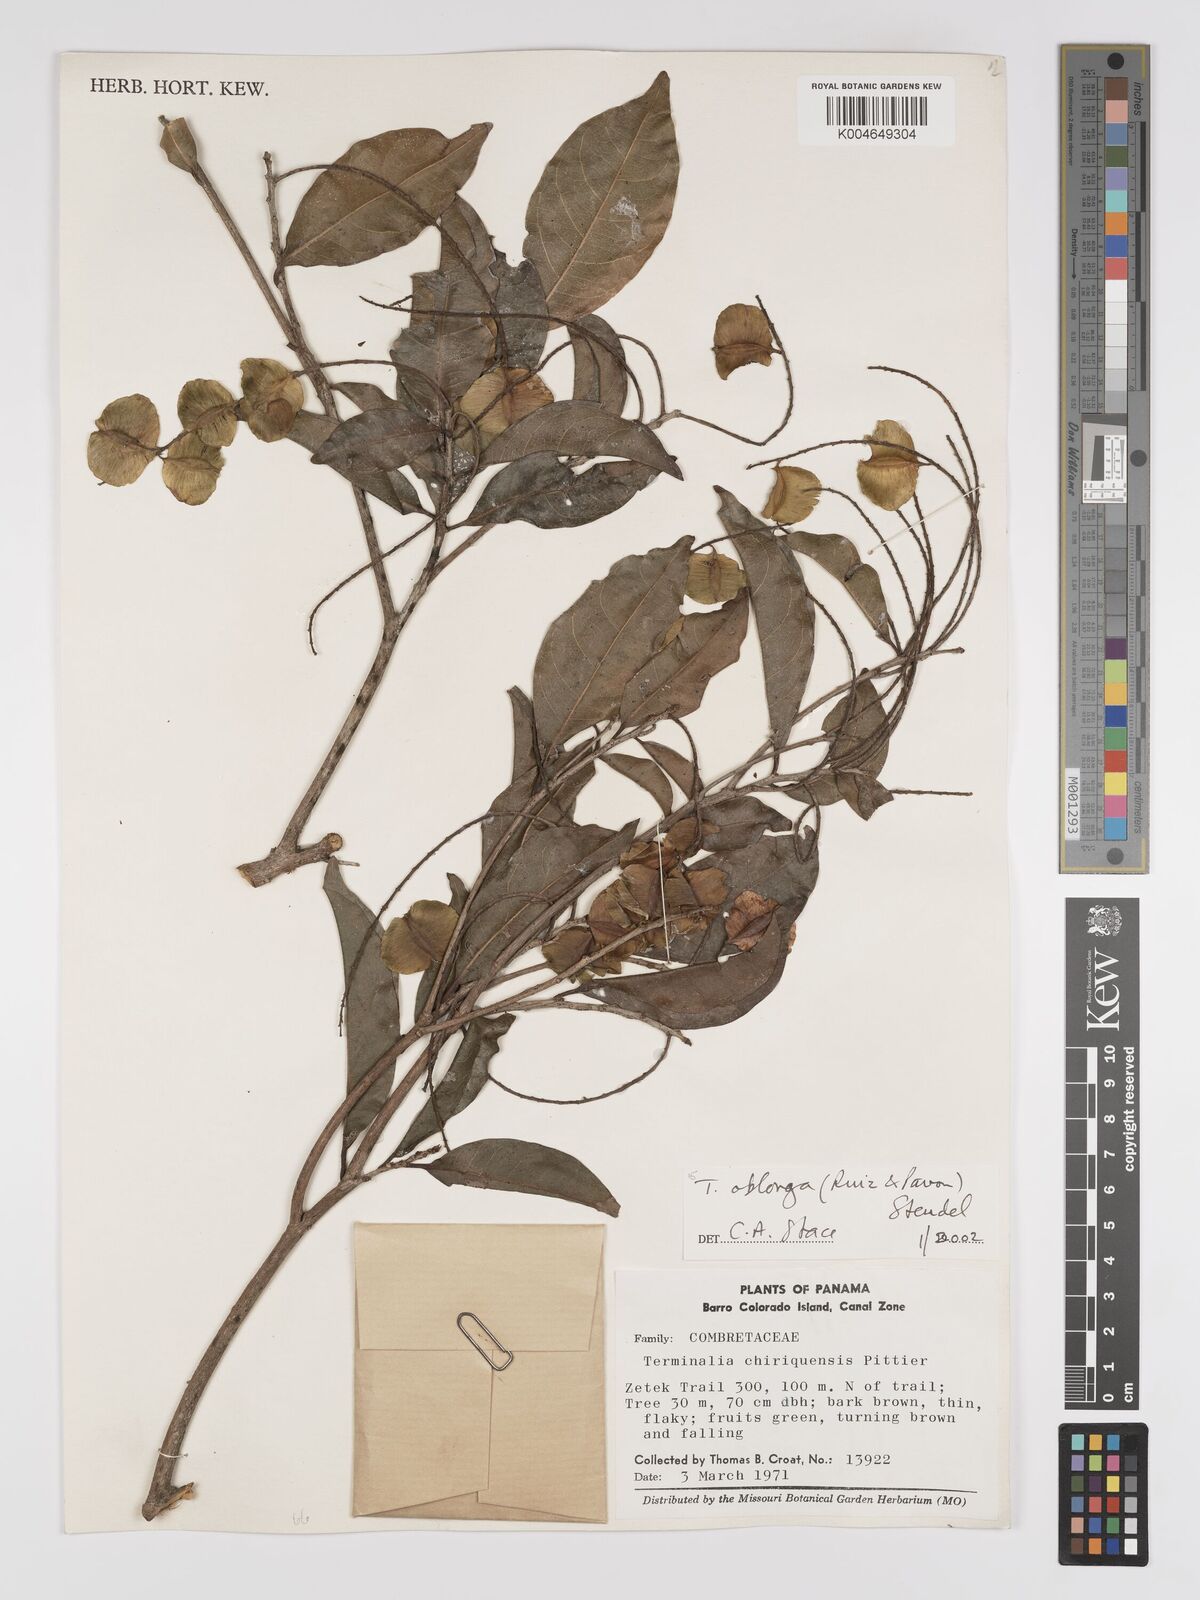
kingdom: Plantae
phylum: Tracheophyta
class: Magnoliopsida
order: Myrtales
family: Combretaceae
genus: Terminalia
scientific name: Terminalia oblonga
